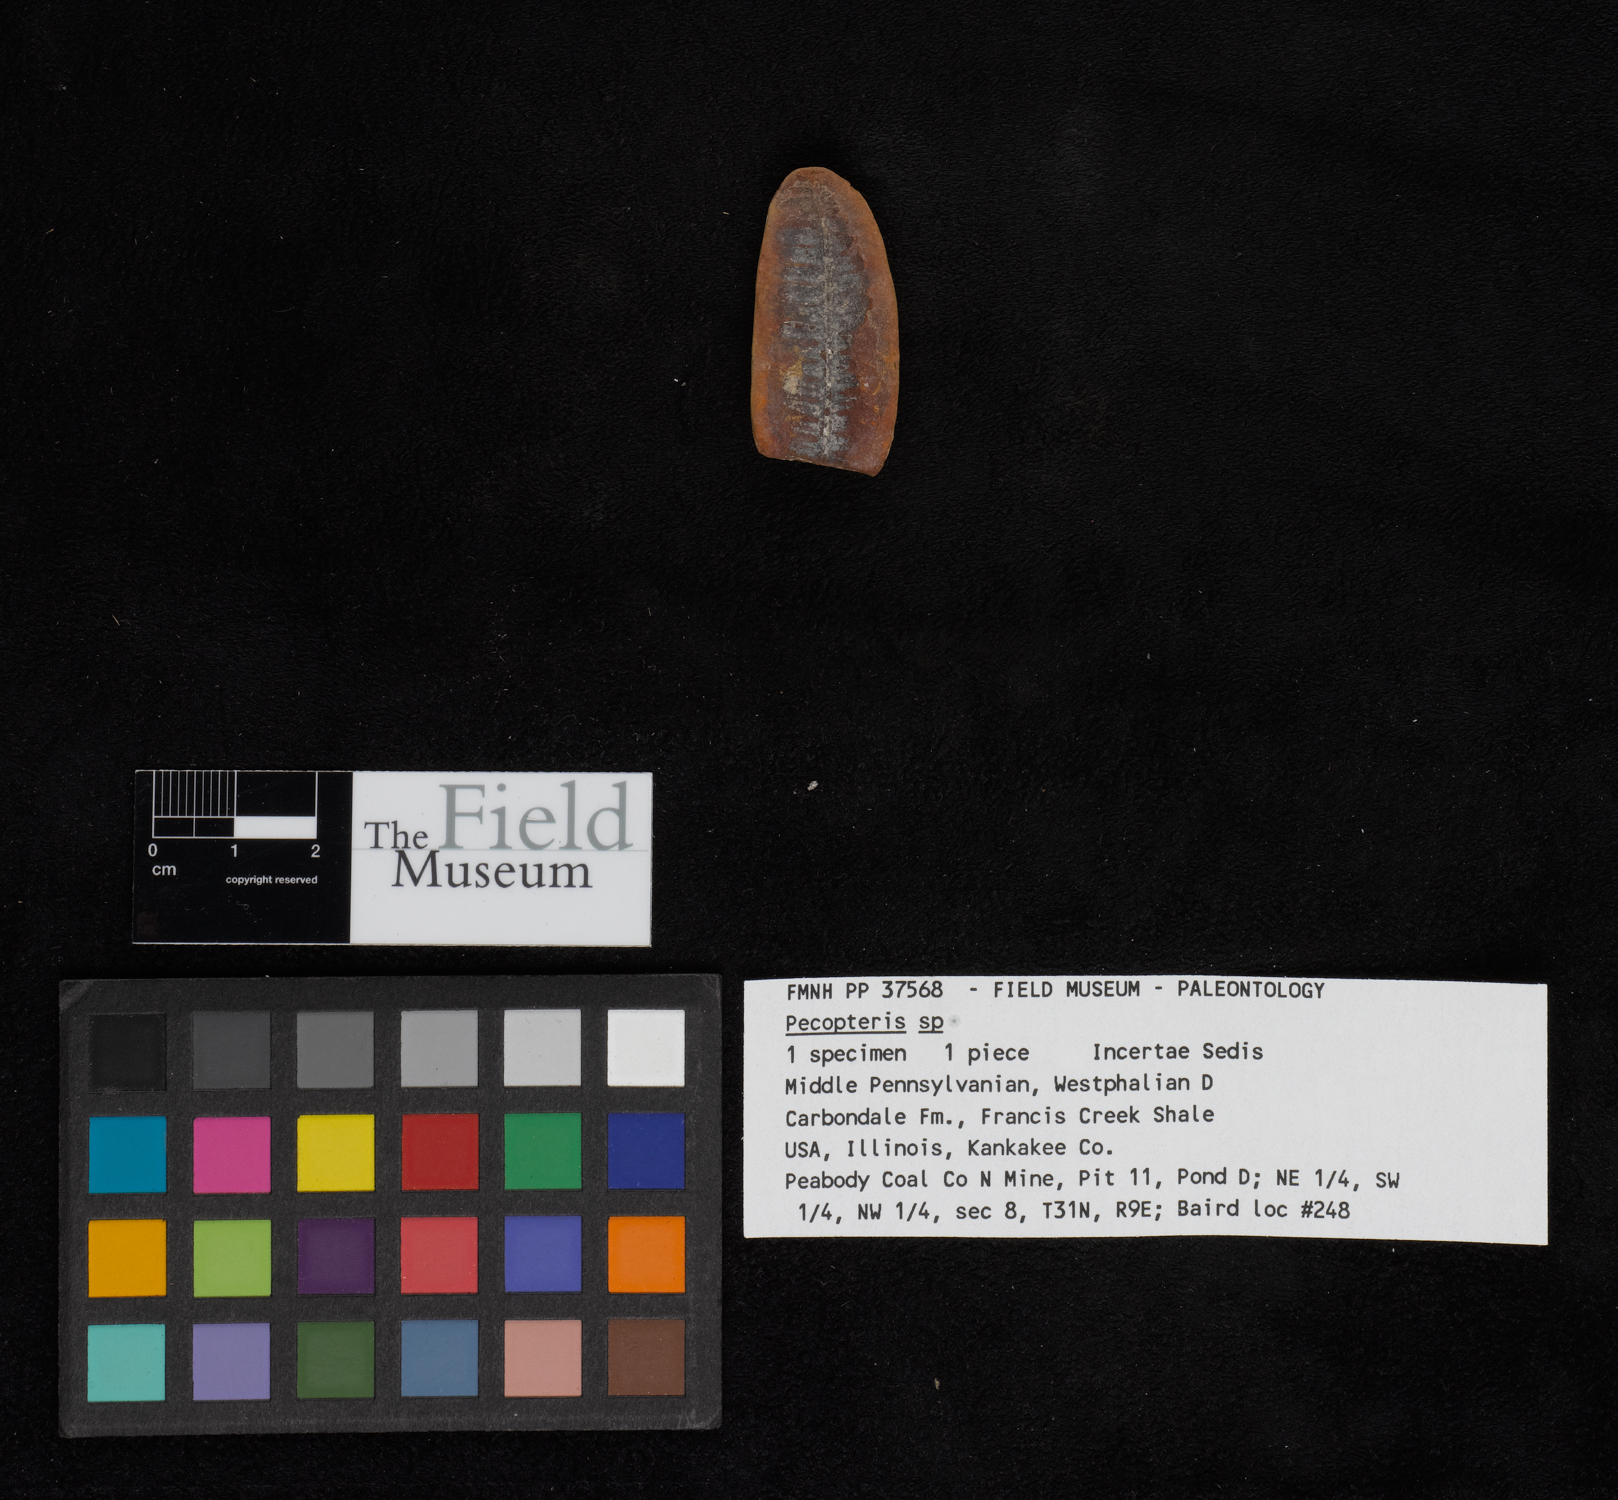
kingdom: Plantae
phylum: Tracheophyta
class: Polypodiopsida
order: Marattiales
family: Asterothecaceae
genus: Pecopteris
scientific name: Pecopteris
